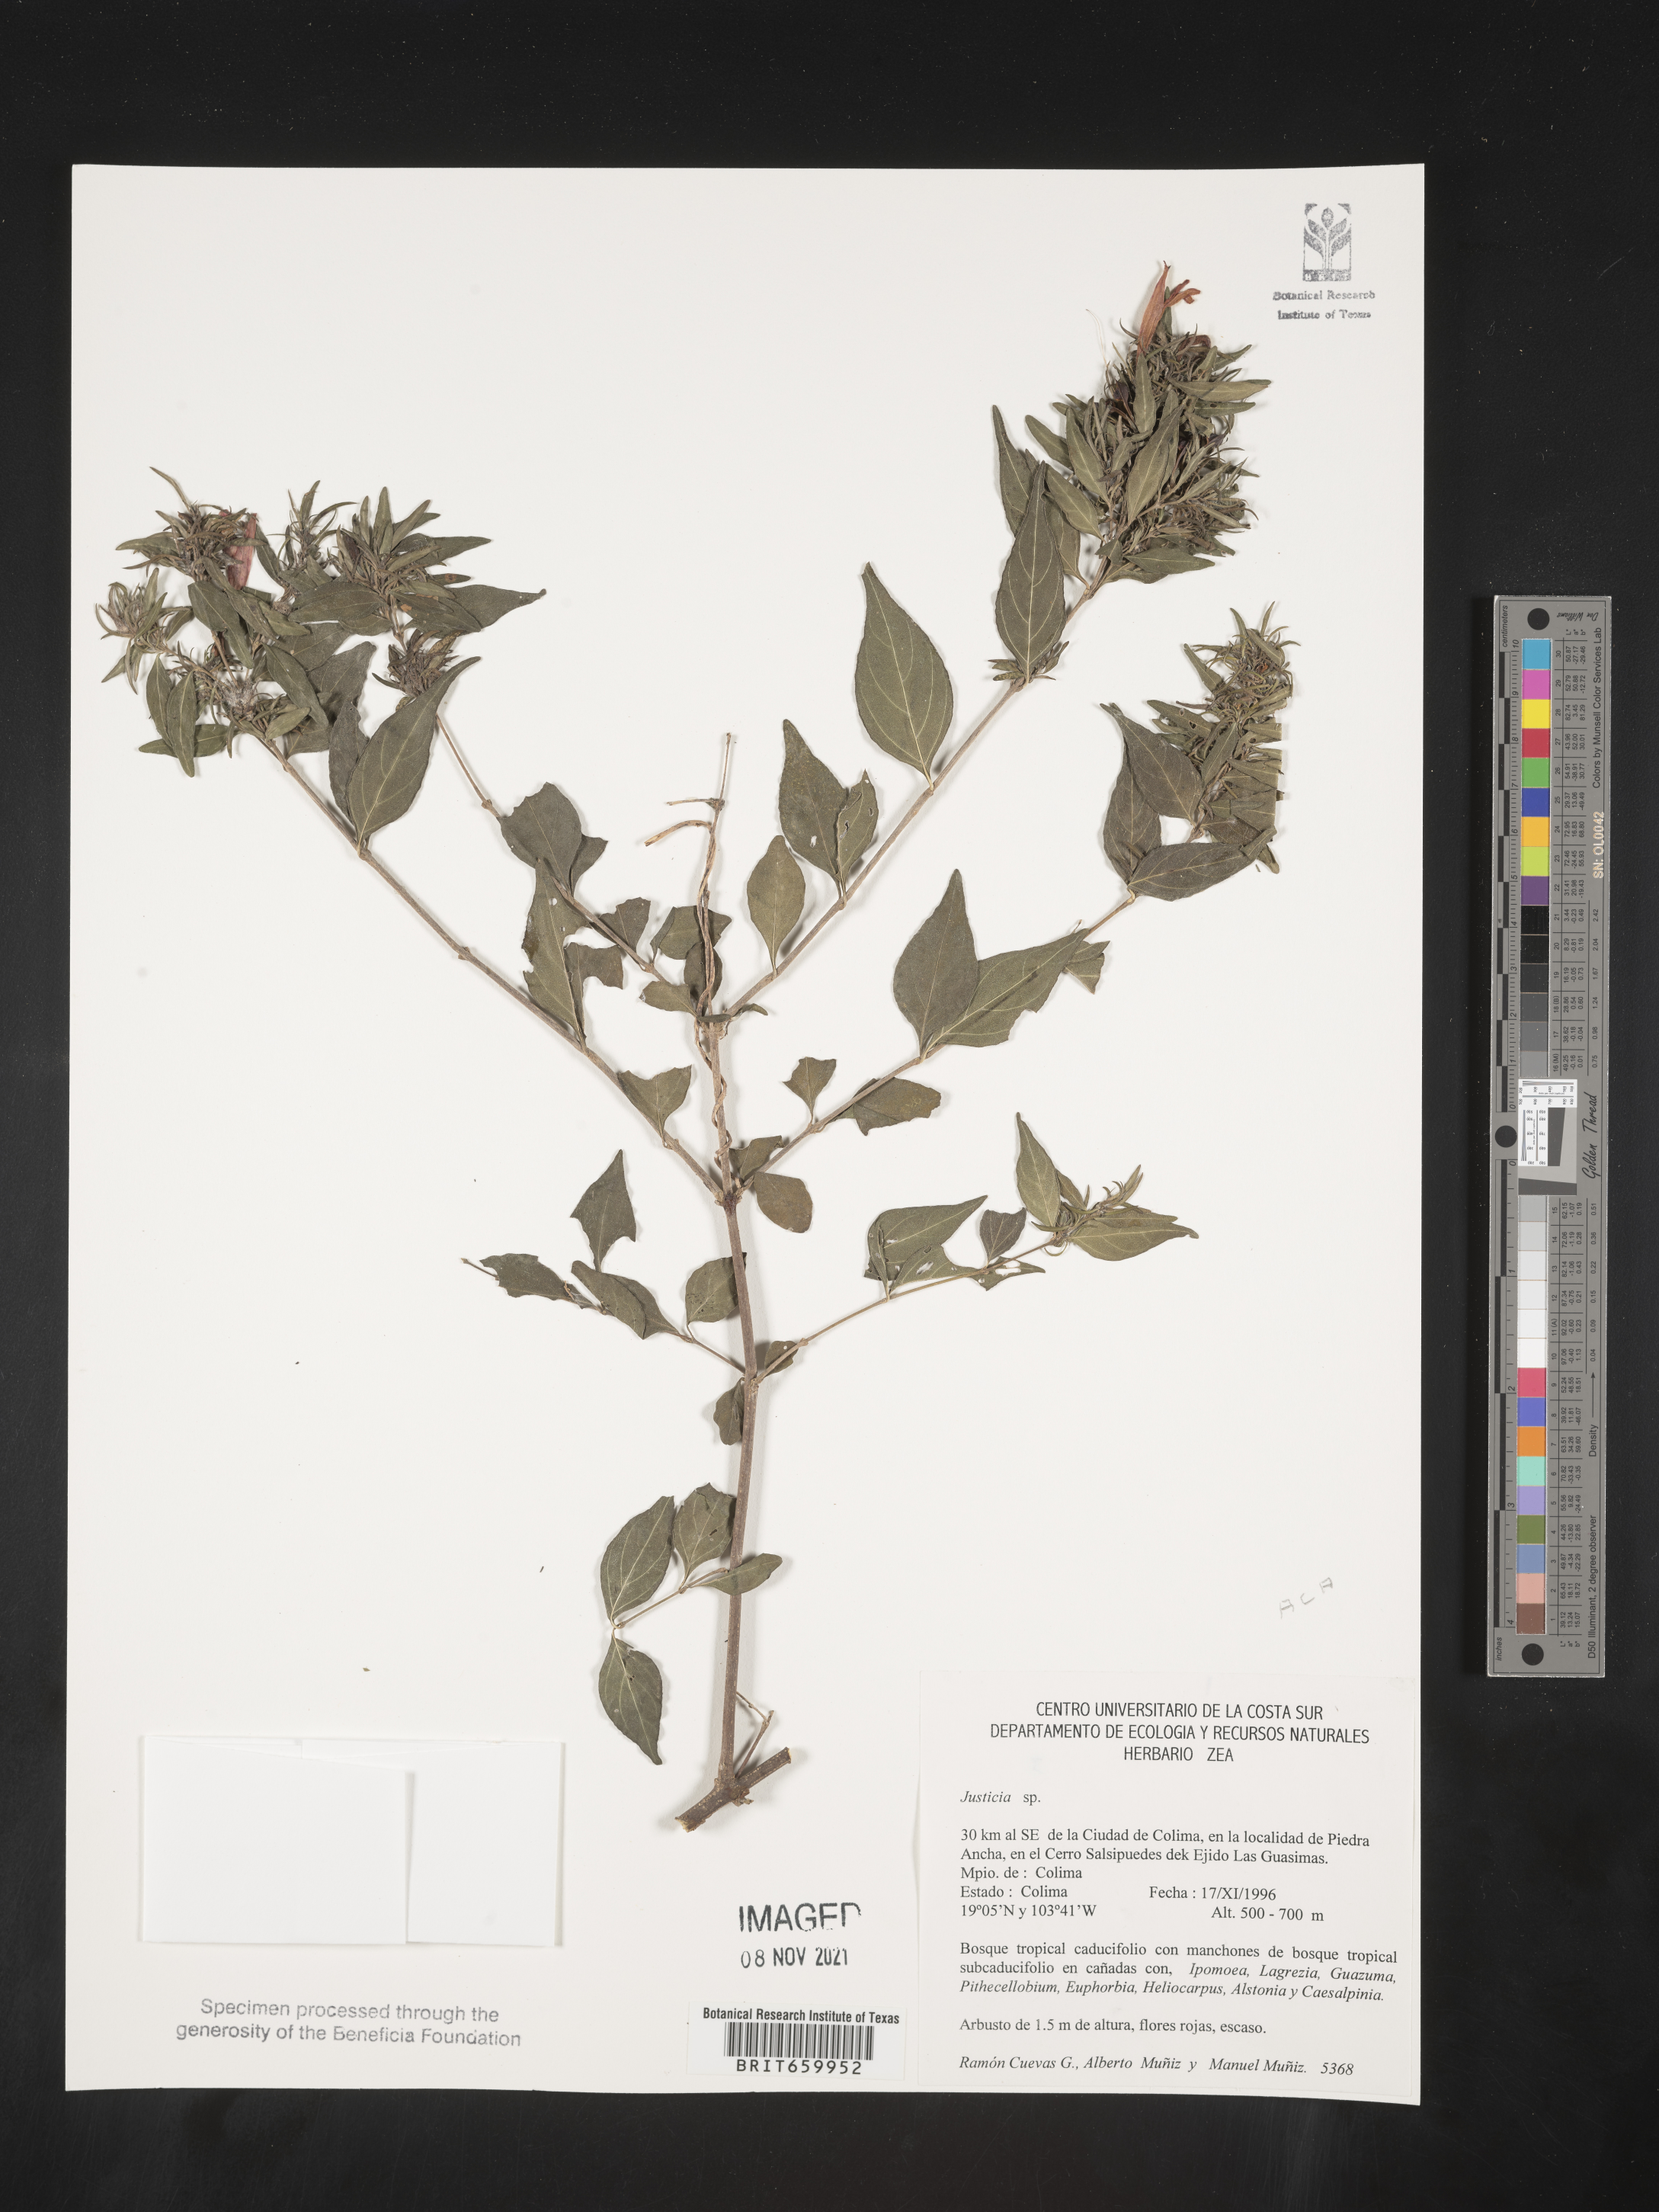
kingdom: Plantae
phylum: Tracheophyta
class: Magnoliopsida
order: Lamiales
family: Acanthaceae
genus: Justicia
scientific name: Justicia
